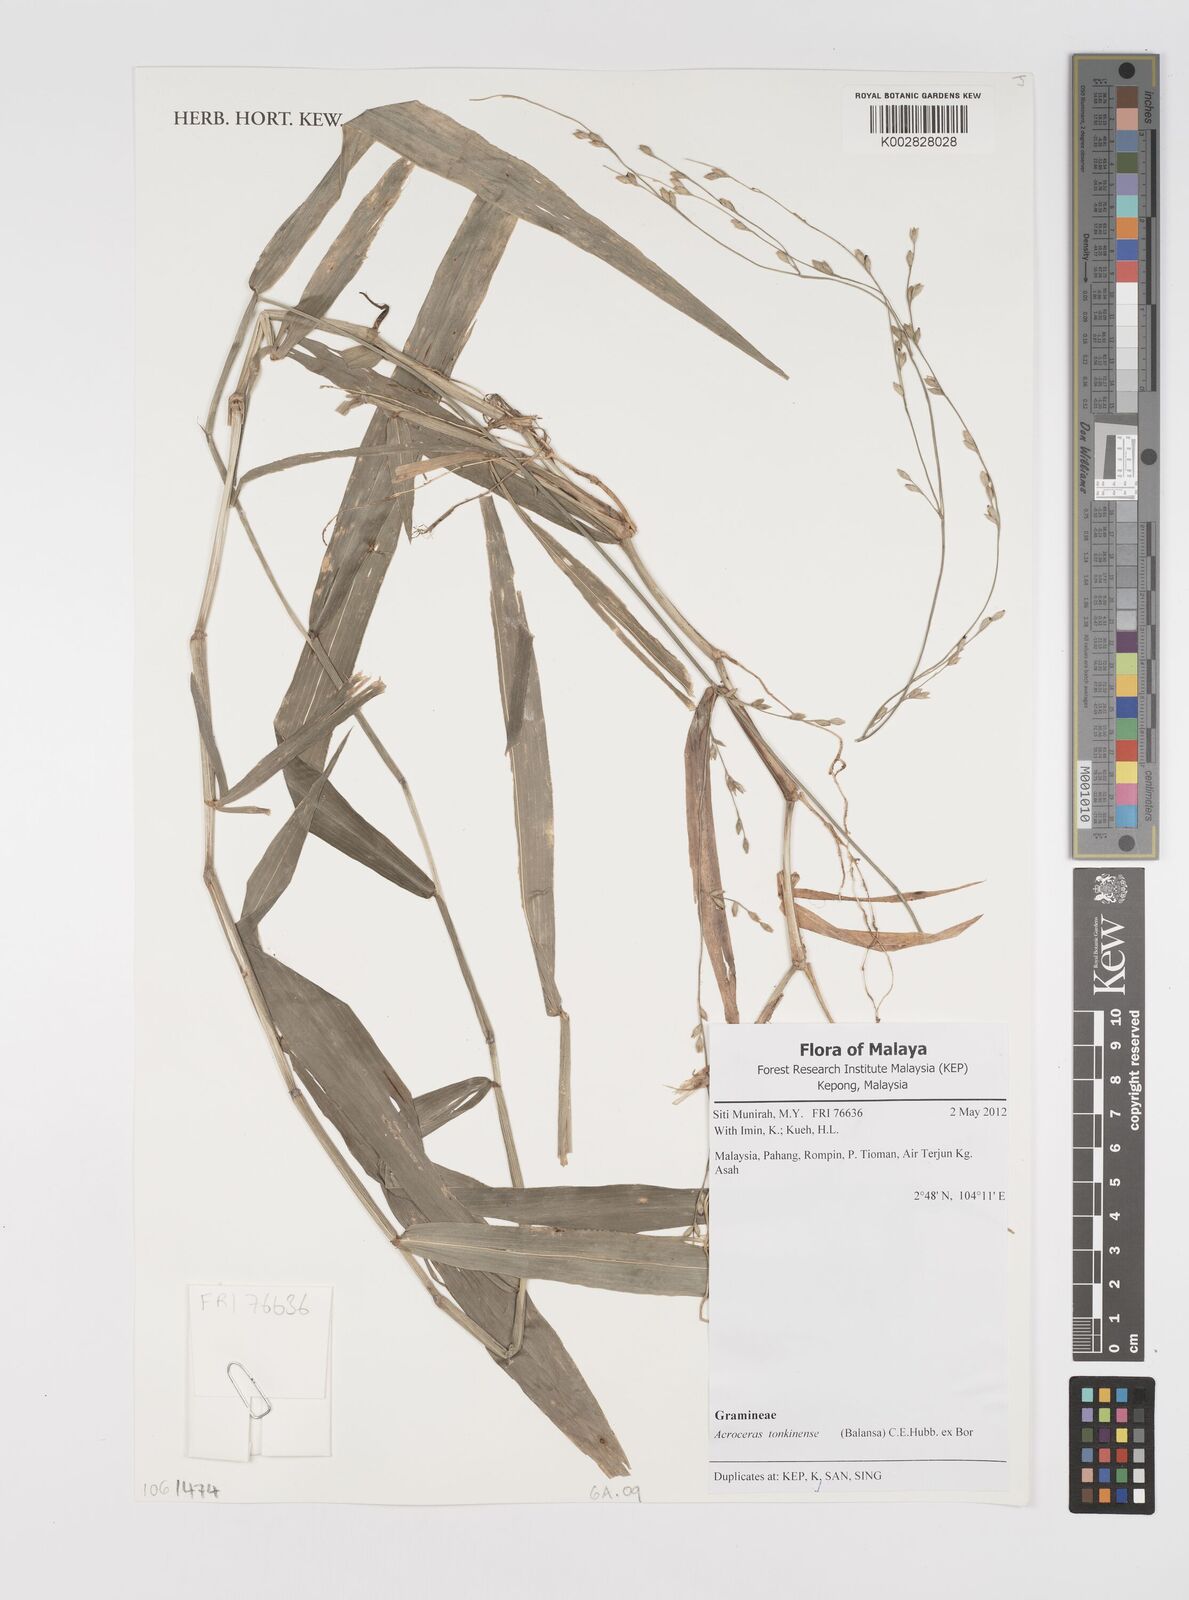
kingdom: Plantae
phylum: Tracheophyta
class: Liliopsida
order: Poales
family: Poaceae
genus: Acroceras
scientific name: Acroceras tonkinense
